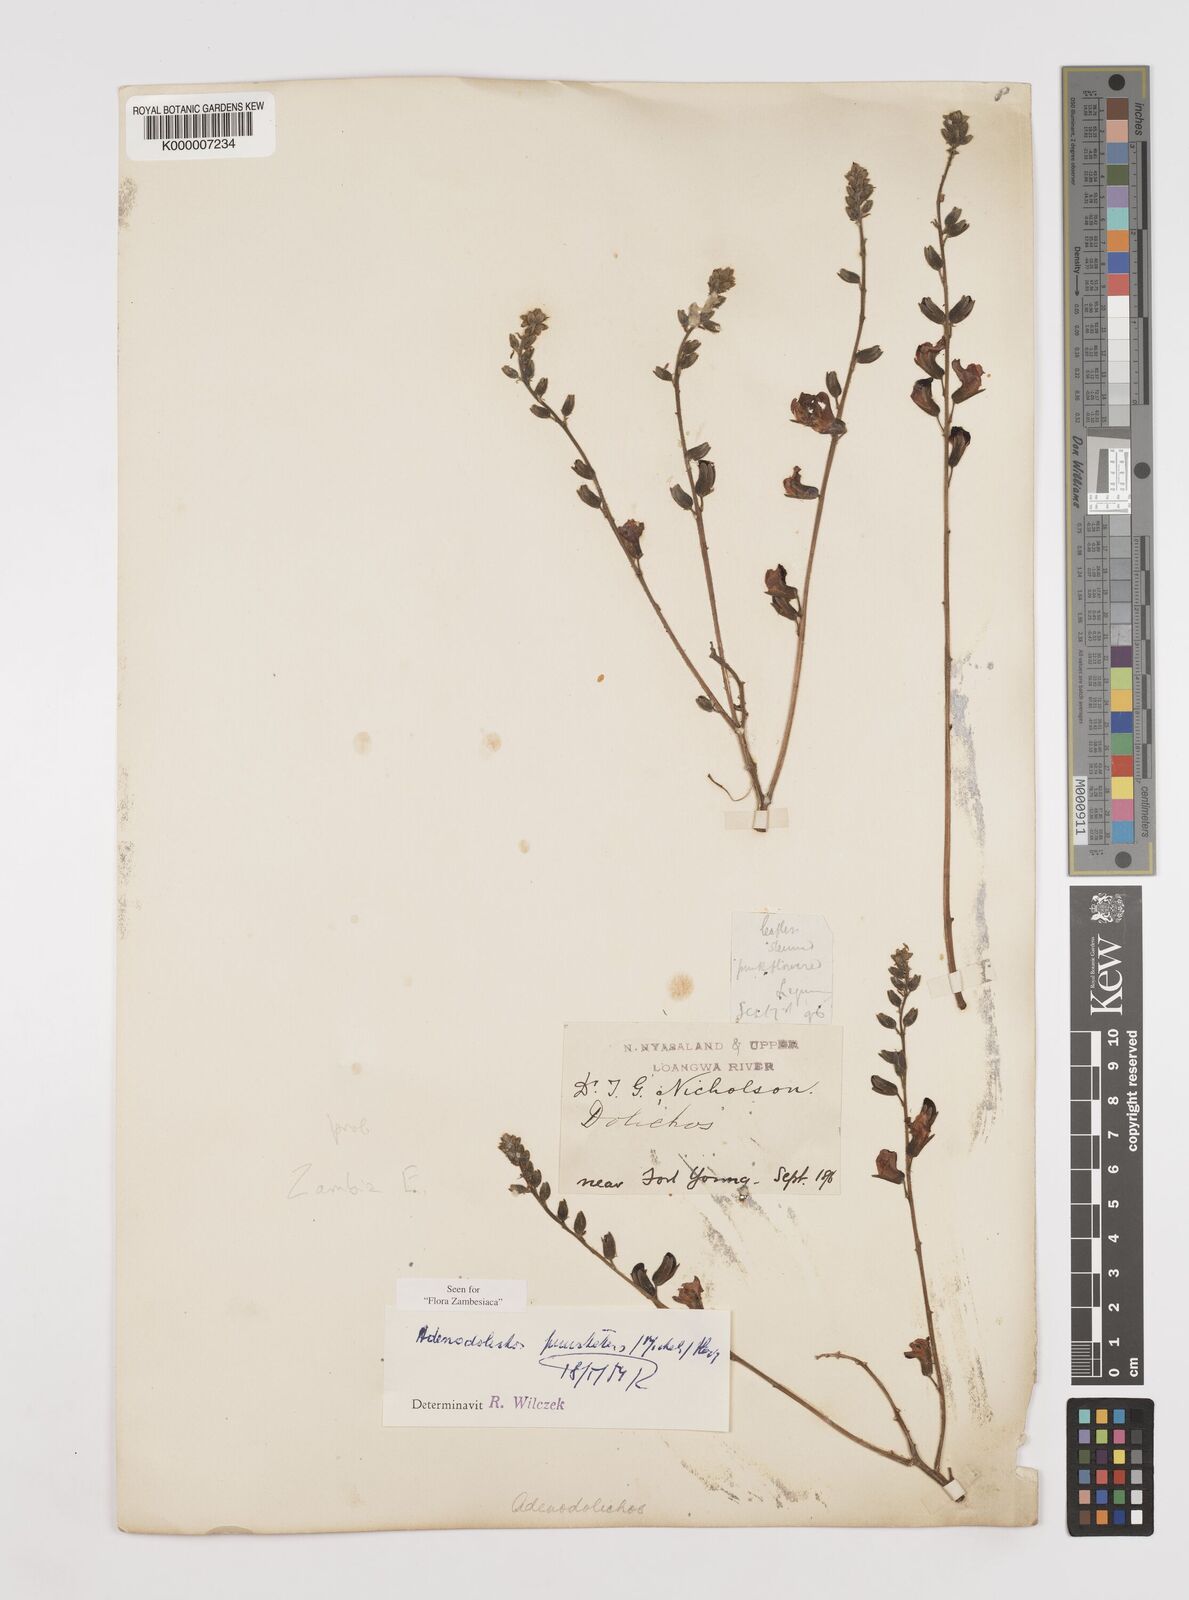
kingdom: Plantae
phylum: Tracheophyta
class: Magnoliopsida
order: Fabales
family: Fabaceae
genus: Adenodolichos
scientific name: Adenodolichos punctatus
